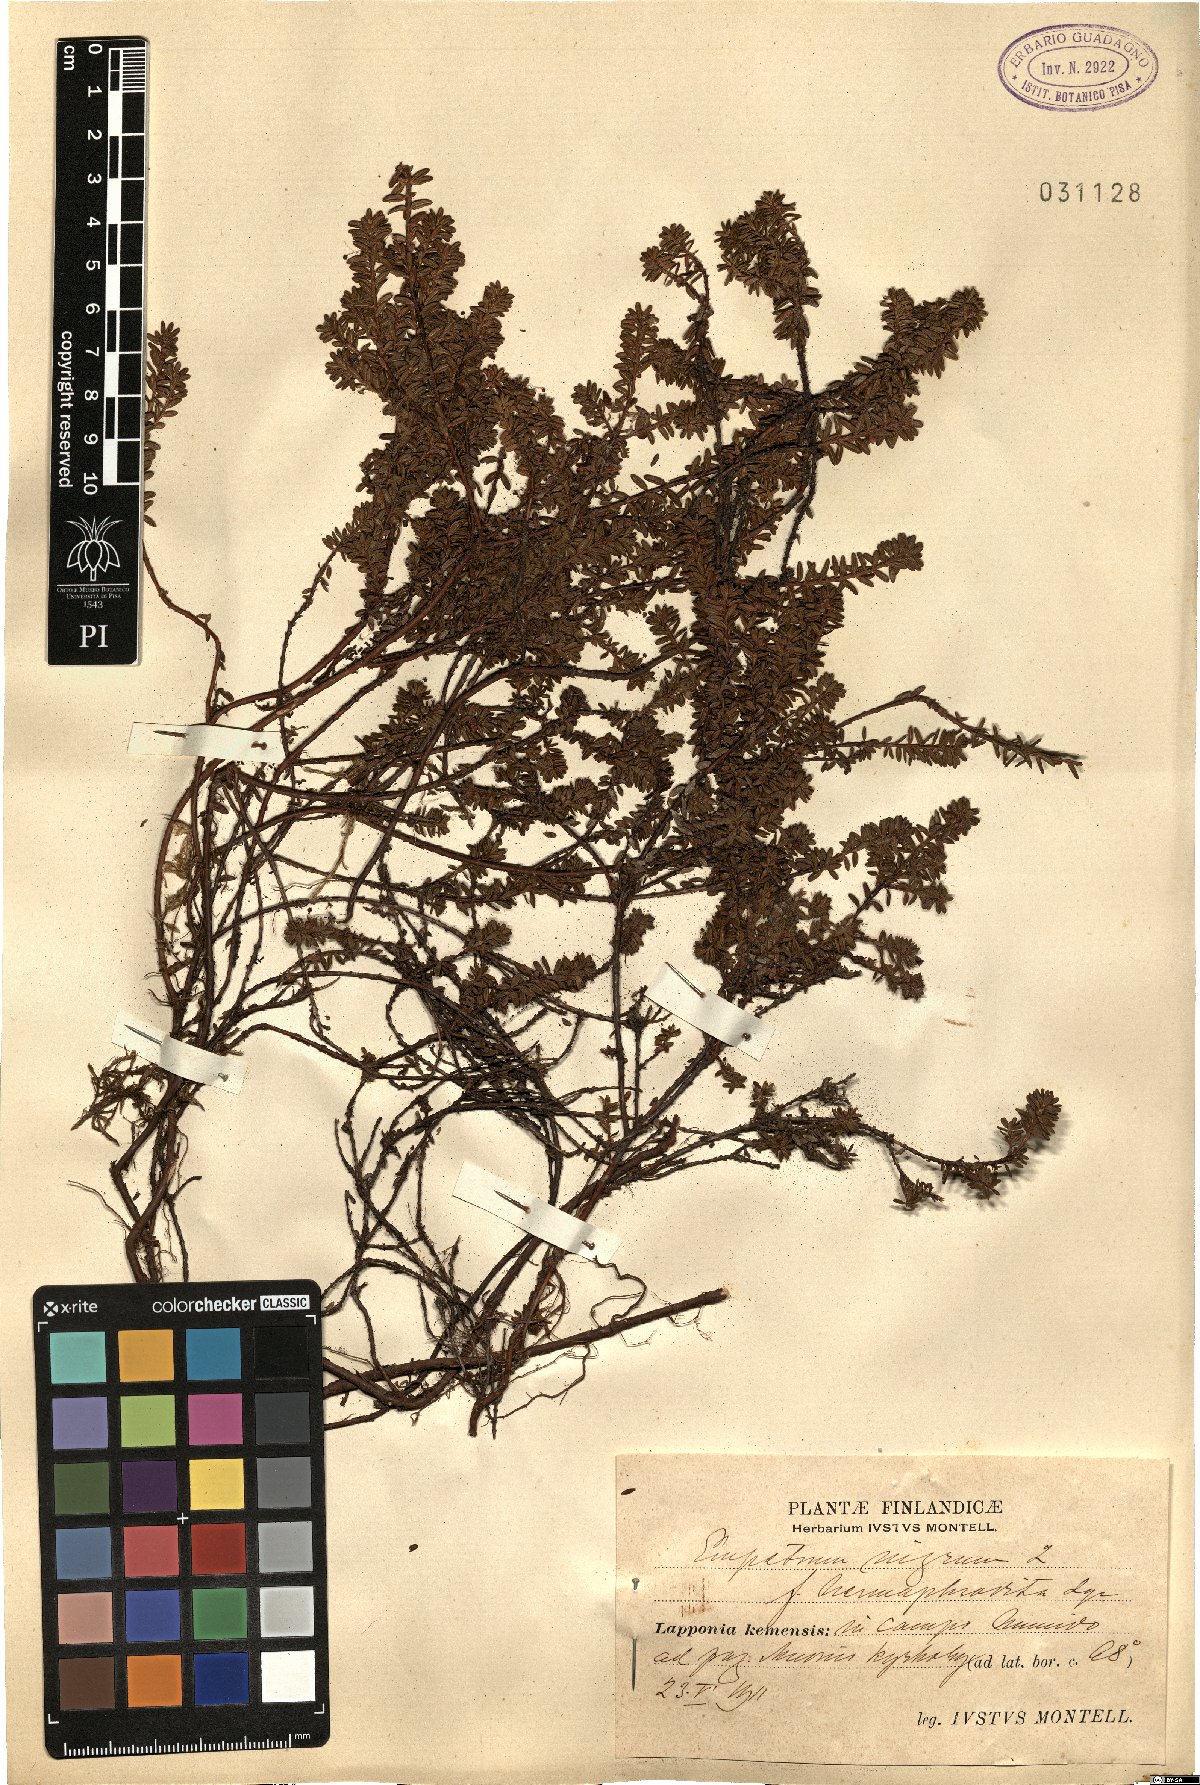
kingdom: Plantae
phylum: Tracheophyta
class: Magnoliopsida
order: Ericales
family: Ericaceae
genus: Empetrum
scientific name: Empetrum hermaphroditum
